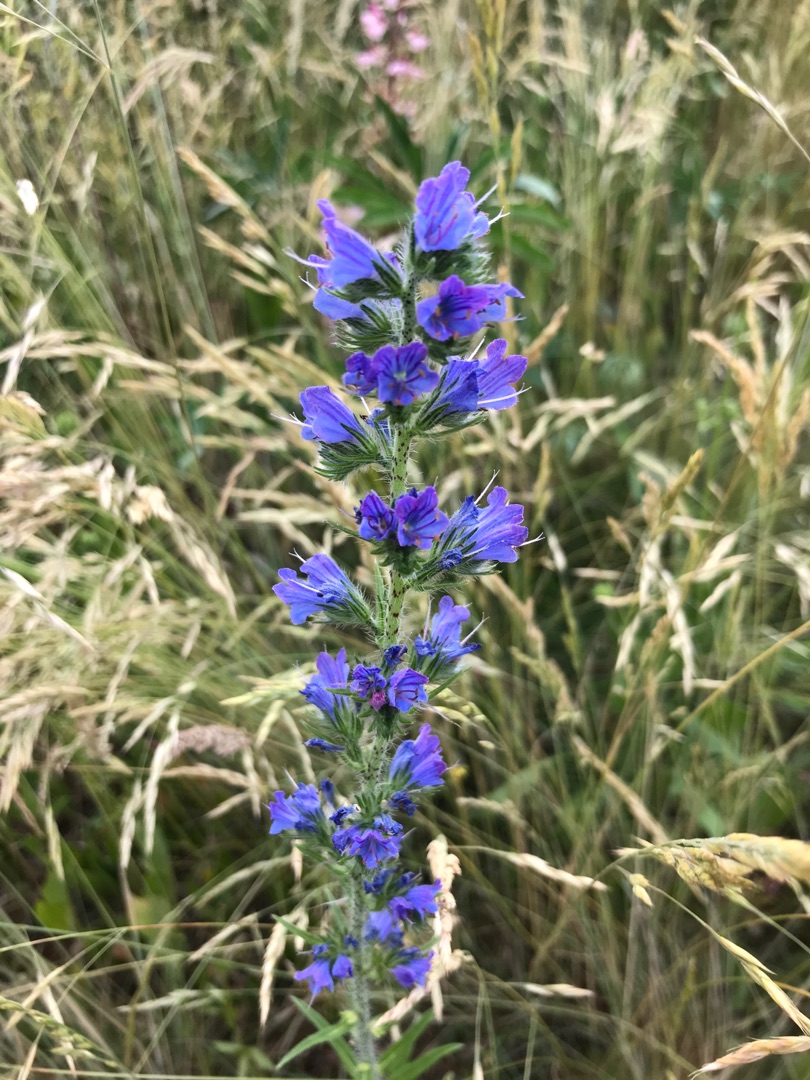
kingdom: Plantae
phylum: Tracheophyta
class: Magnoliopsida
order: Boraginales
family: Boraginaceae
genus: Echium
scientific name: Echium vulgare
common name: Slangehoved
